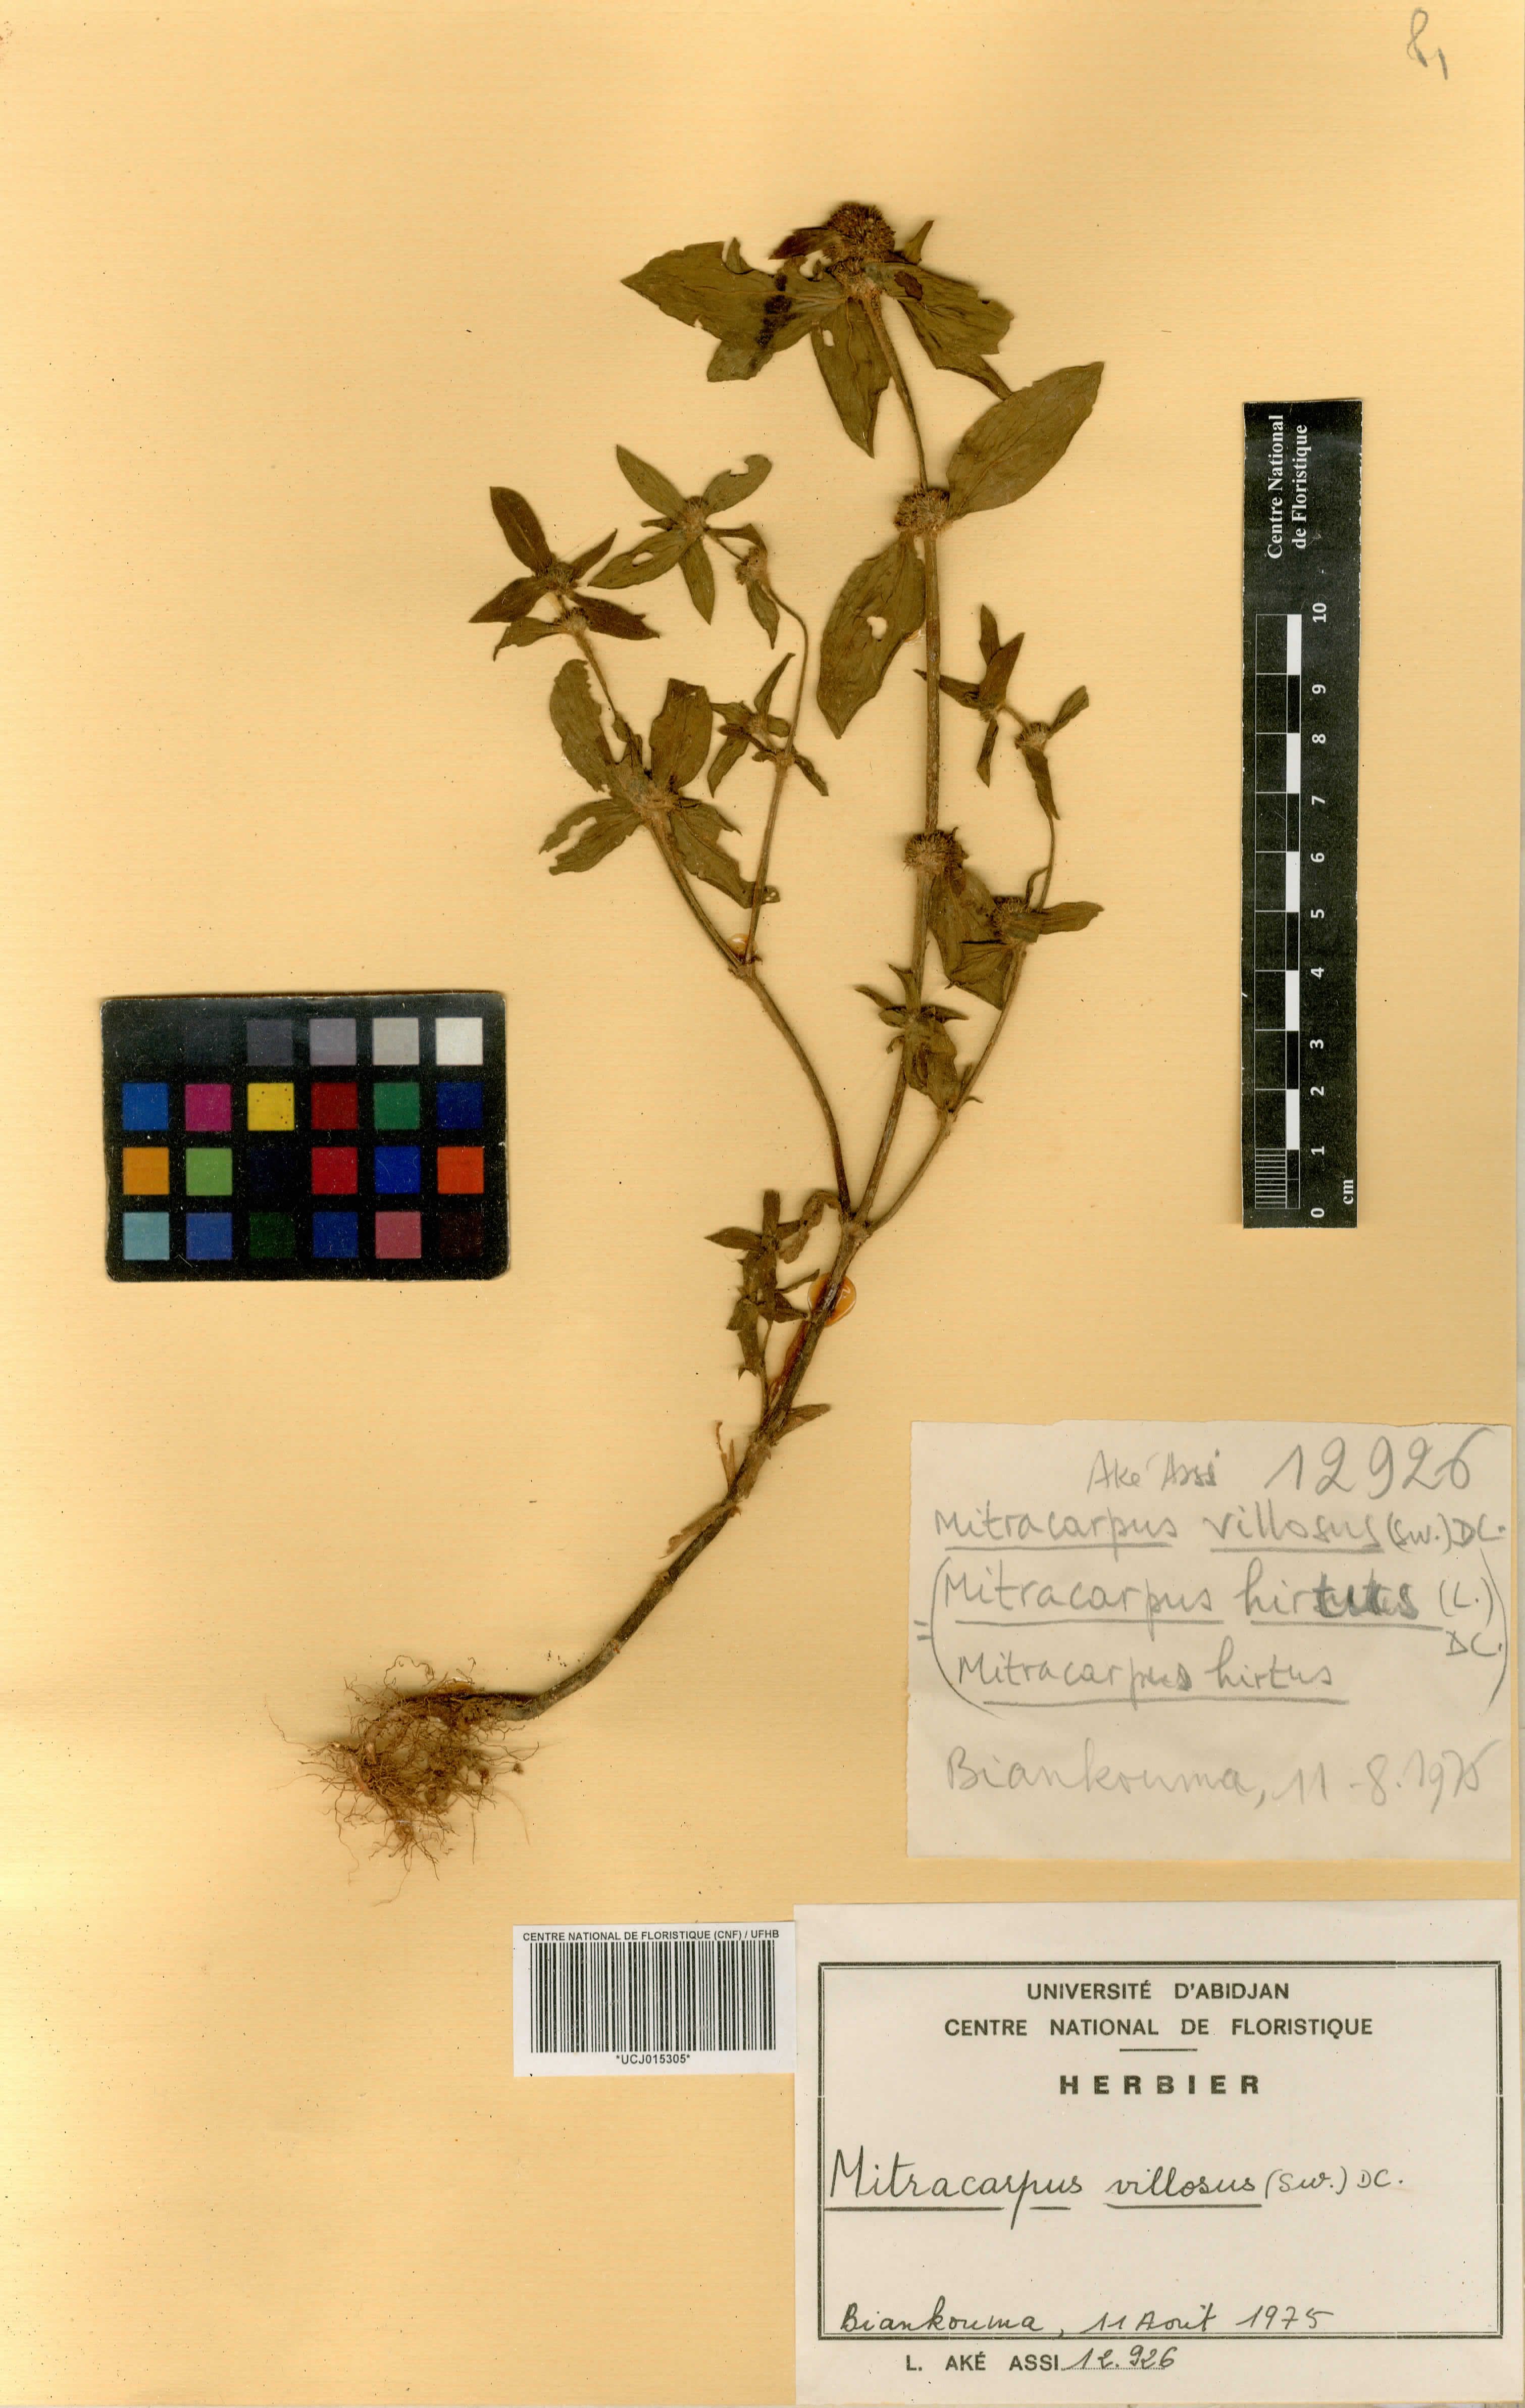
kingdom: Plantae
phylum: Tracheophyta
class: Magnoliopsida
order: Gentianales
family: Rubiaceae
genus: Mitracarpus
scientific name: Mitracarpus hirtus
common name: Tropical girdlepod
